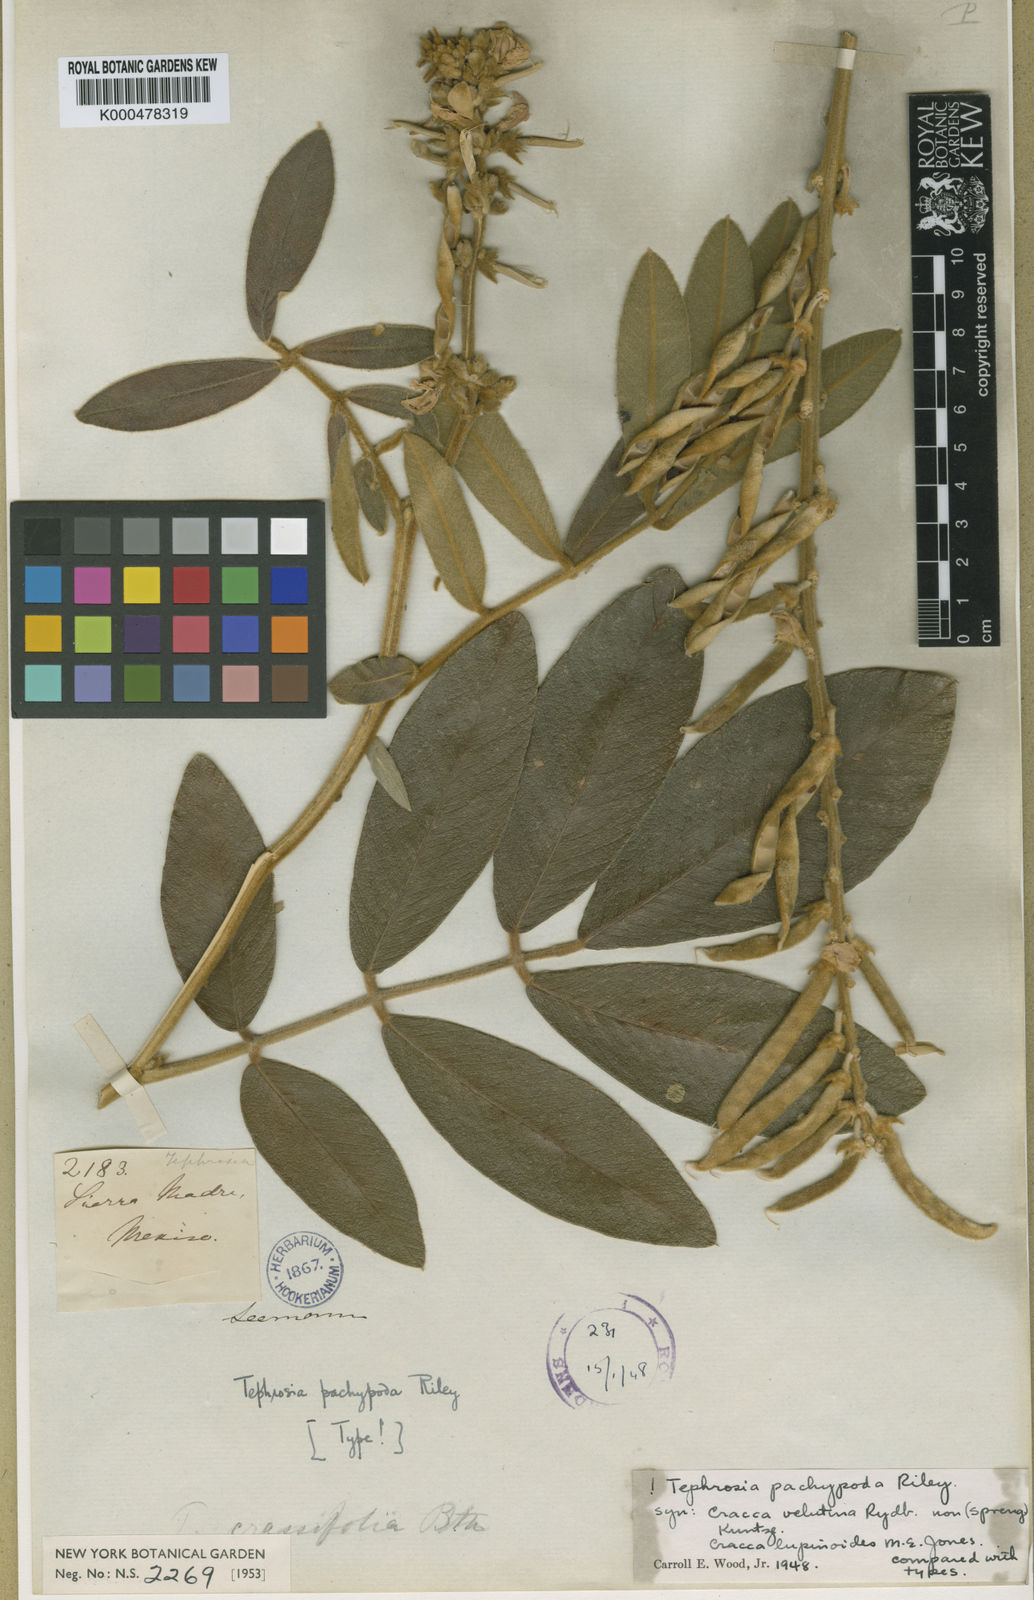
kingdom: Plantae
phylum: Tracheophyta
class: Magnoliopsida
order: Fabales
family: Fabaceae
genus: Tephrosia
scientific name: Tephrosia pachypoda
